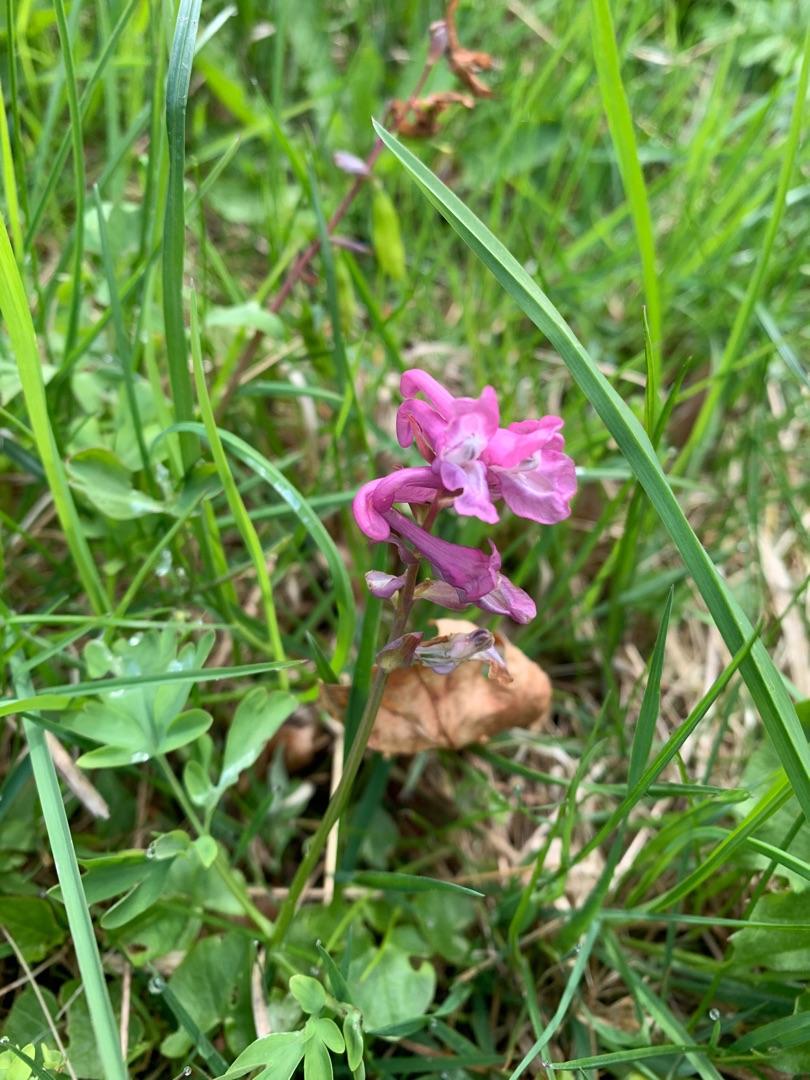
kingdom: Plantae
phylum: Tracheophyta
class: Magnoliopsida
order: Ranunculales
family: Papaveraceae
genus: Corydalis
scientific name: Corydalis cava
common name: Hulrodet lærkespore
